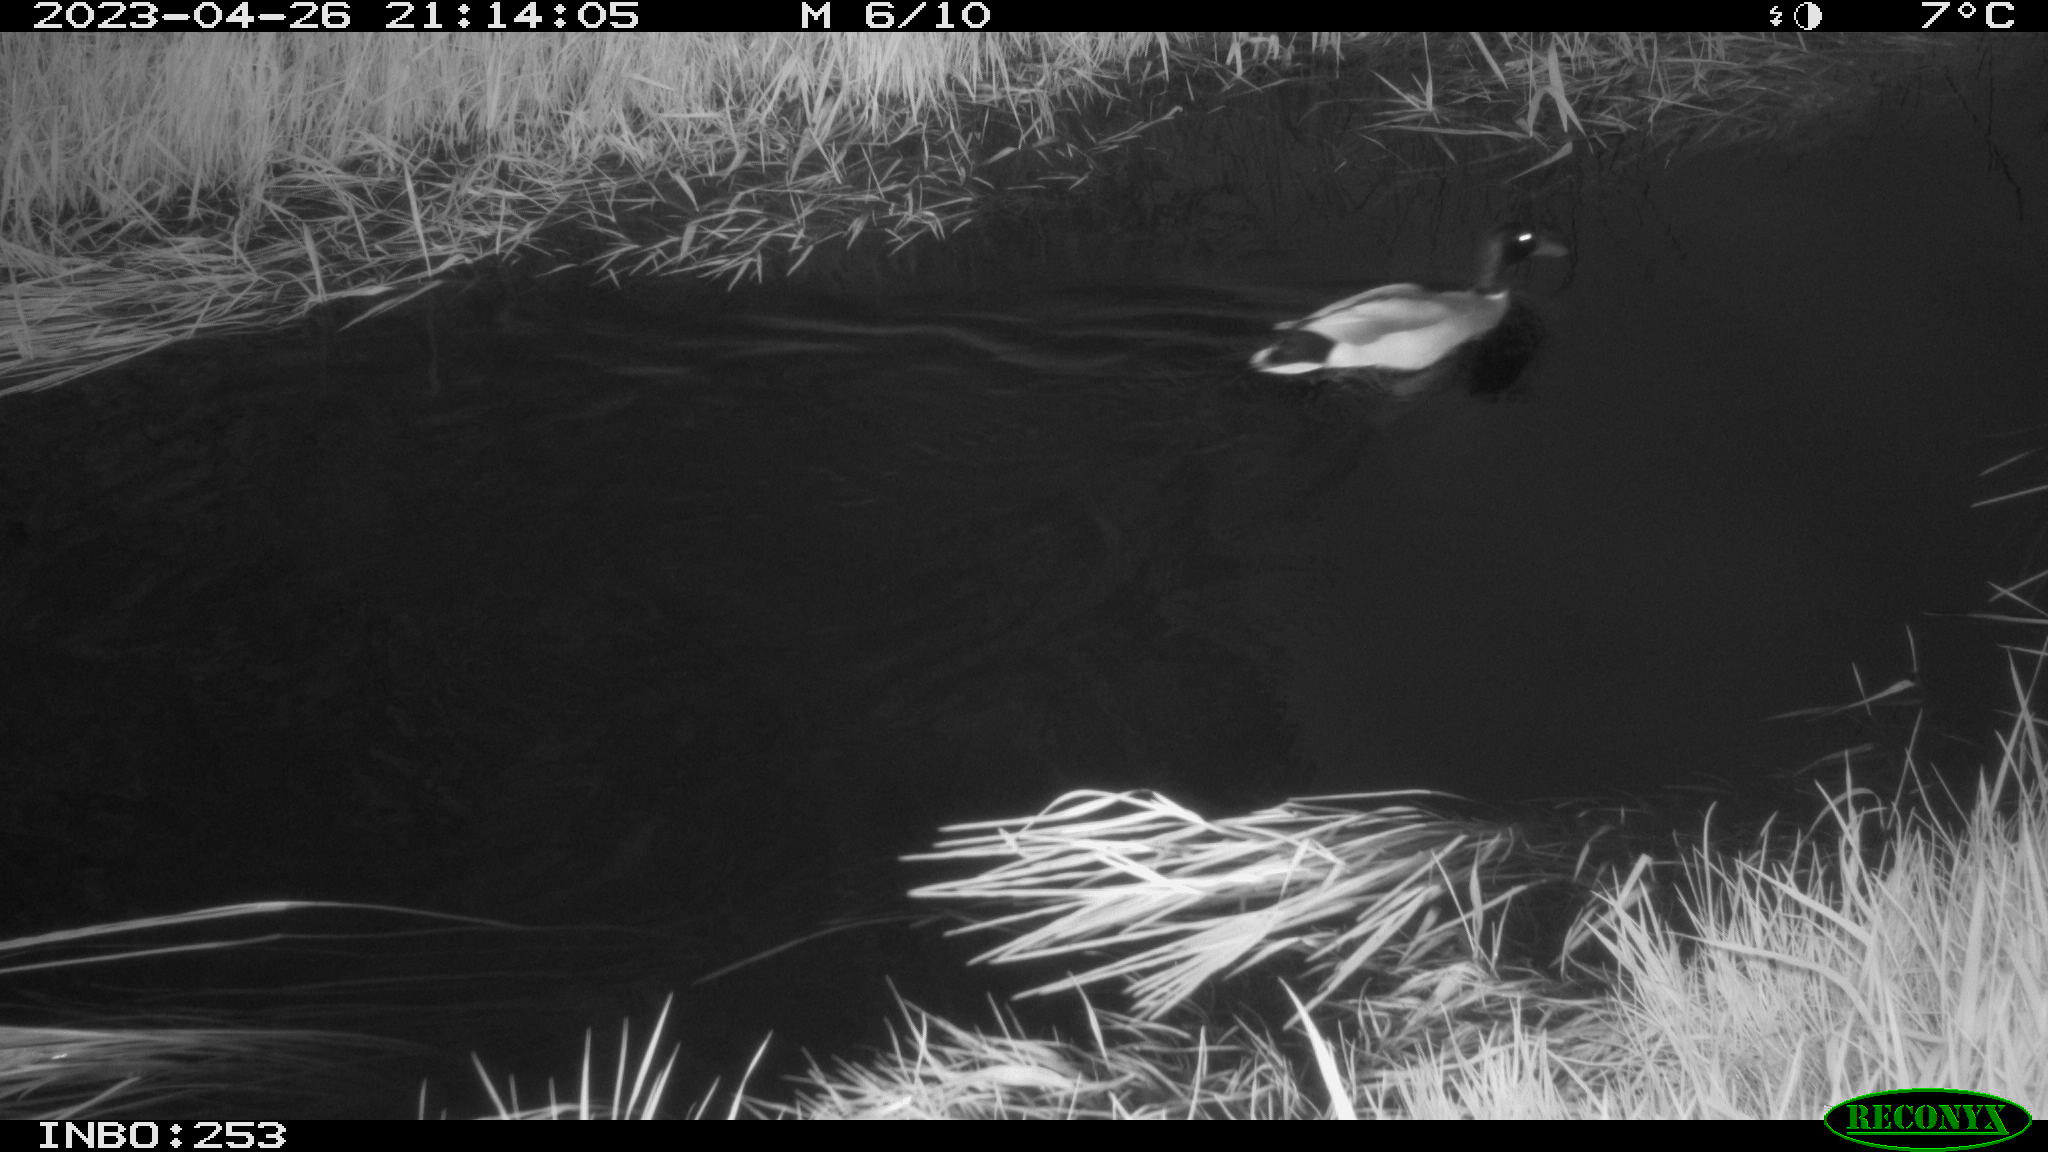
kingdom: Animalia
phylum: Chordata
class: Aves
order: Anseriformes
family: Anatidae
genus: Anas
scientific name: Anas
